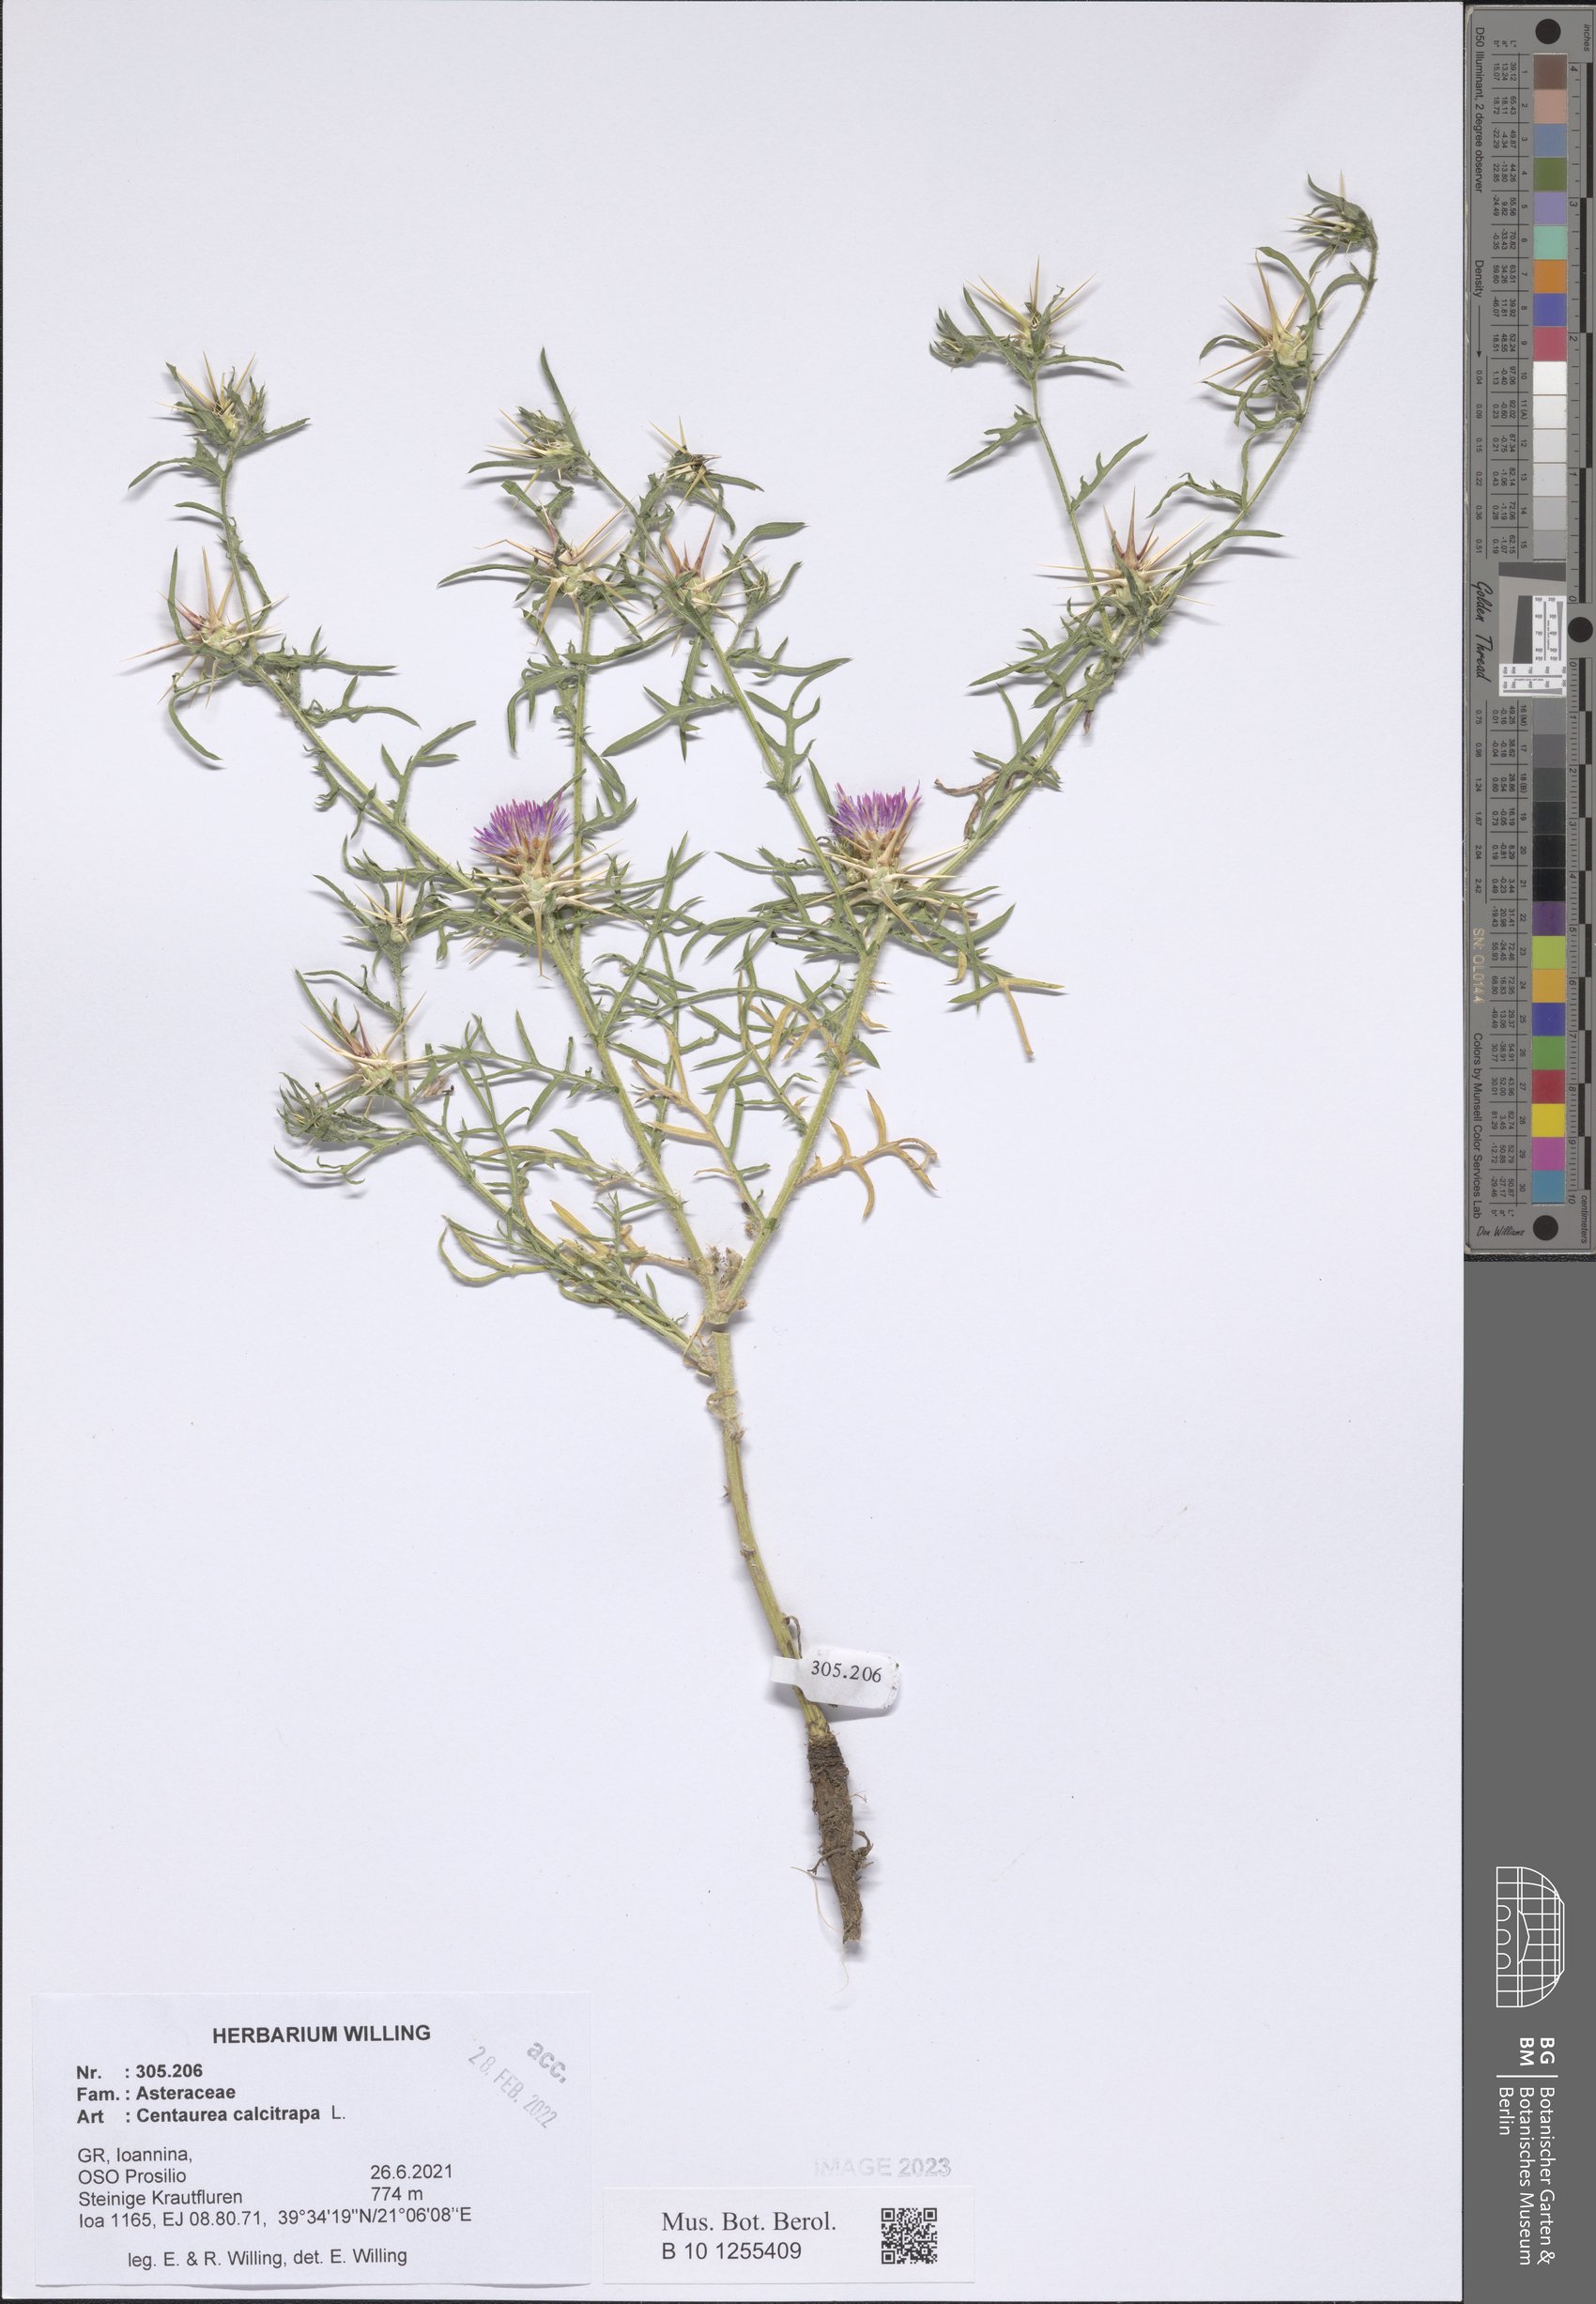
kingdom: Plantae
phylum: Tracheophyta
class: Magnoliopsida
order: Asterales
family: Asteraceae
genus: Centaurea
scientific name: Centaurea calcitrapa
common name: Red star-thistle
